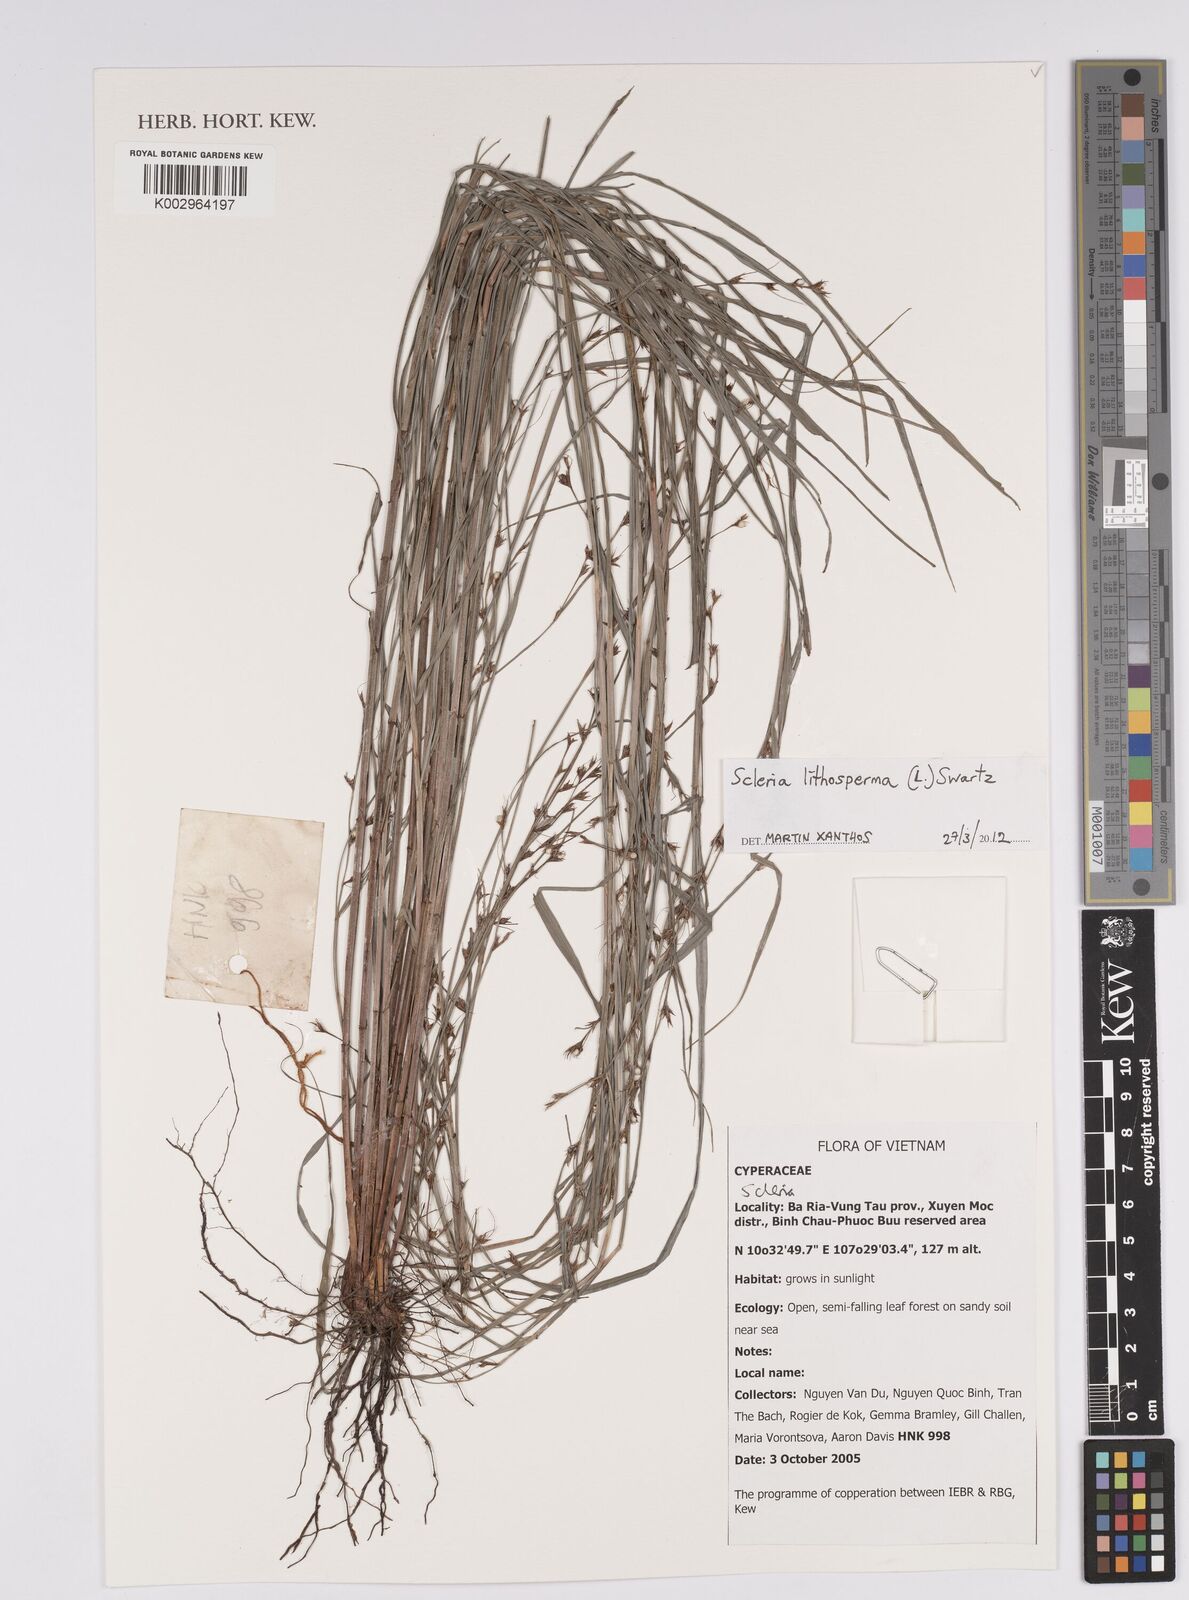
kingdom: Plantae
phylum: Tracheophyta
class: Liliopsida
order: Poales
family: Cyperaceae
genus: Scleria
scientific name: Scleria lithosperma
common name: Florida keys nut-rush
